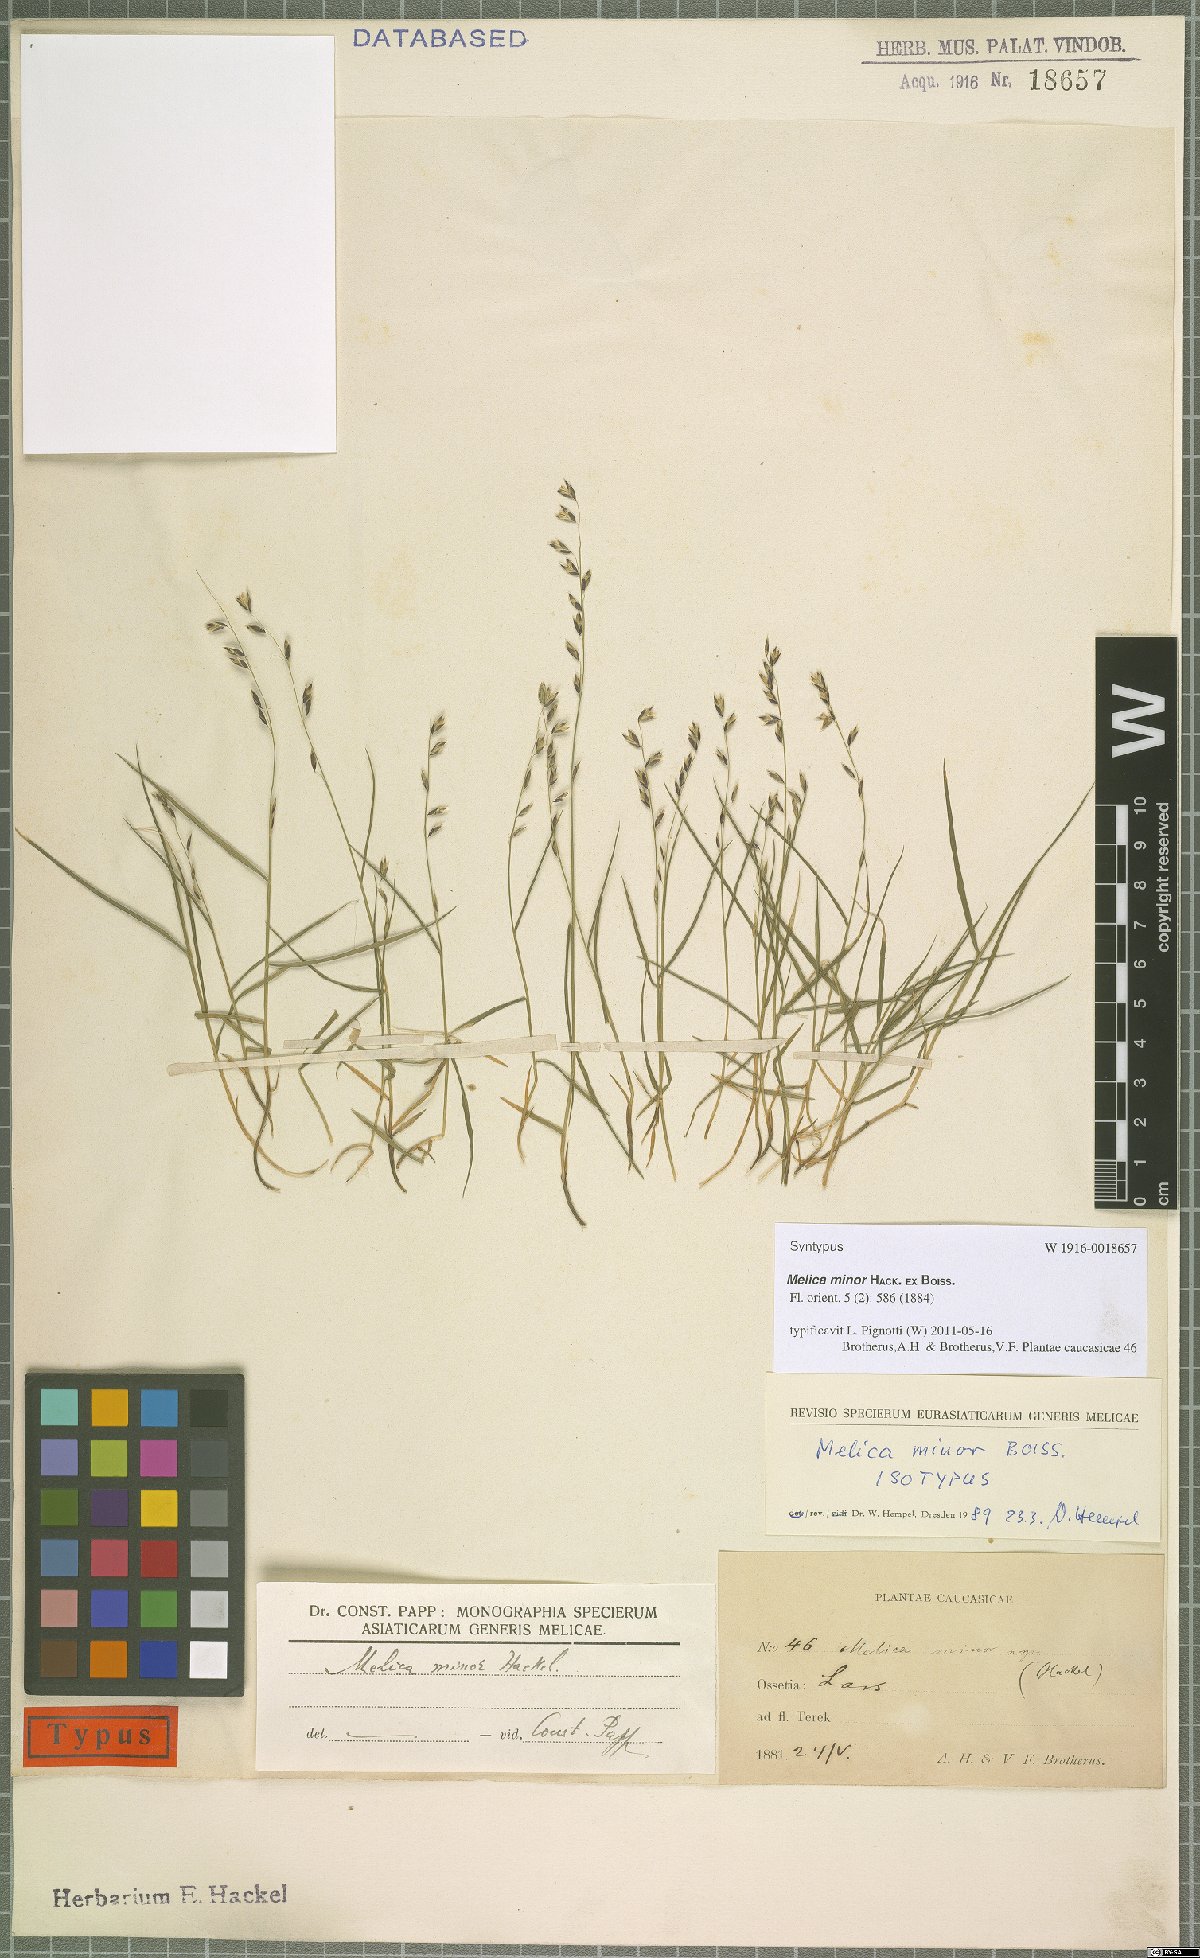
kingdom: Plantae
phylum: Tracheophyta
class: Liliopsida
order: Poales
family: Poaceae
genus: Melica
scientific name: Melica minor
